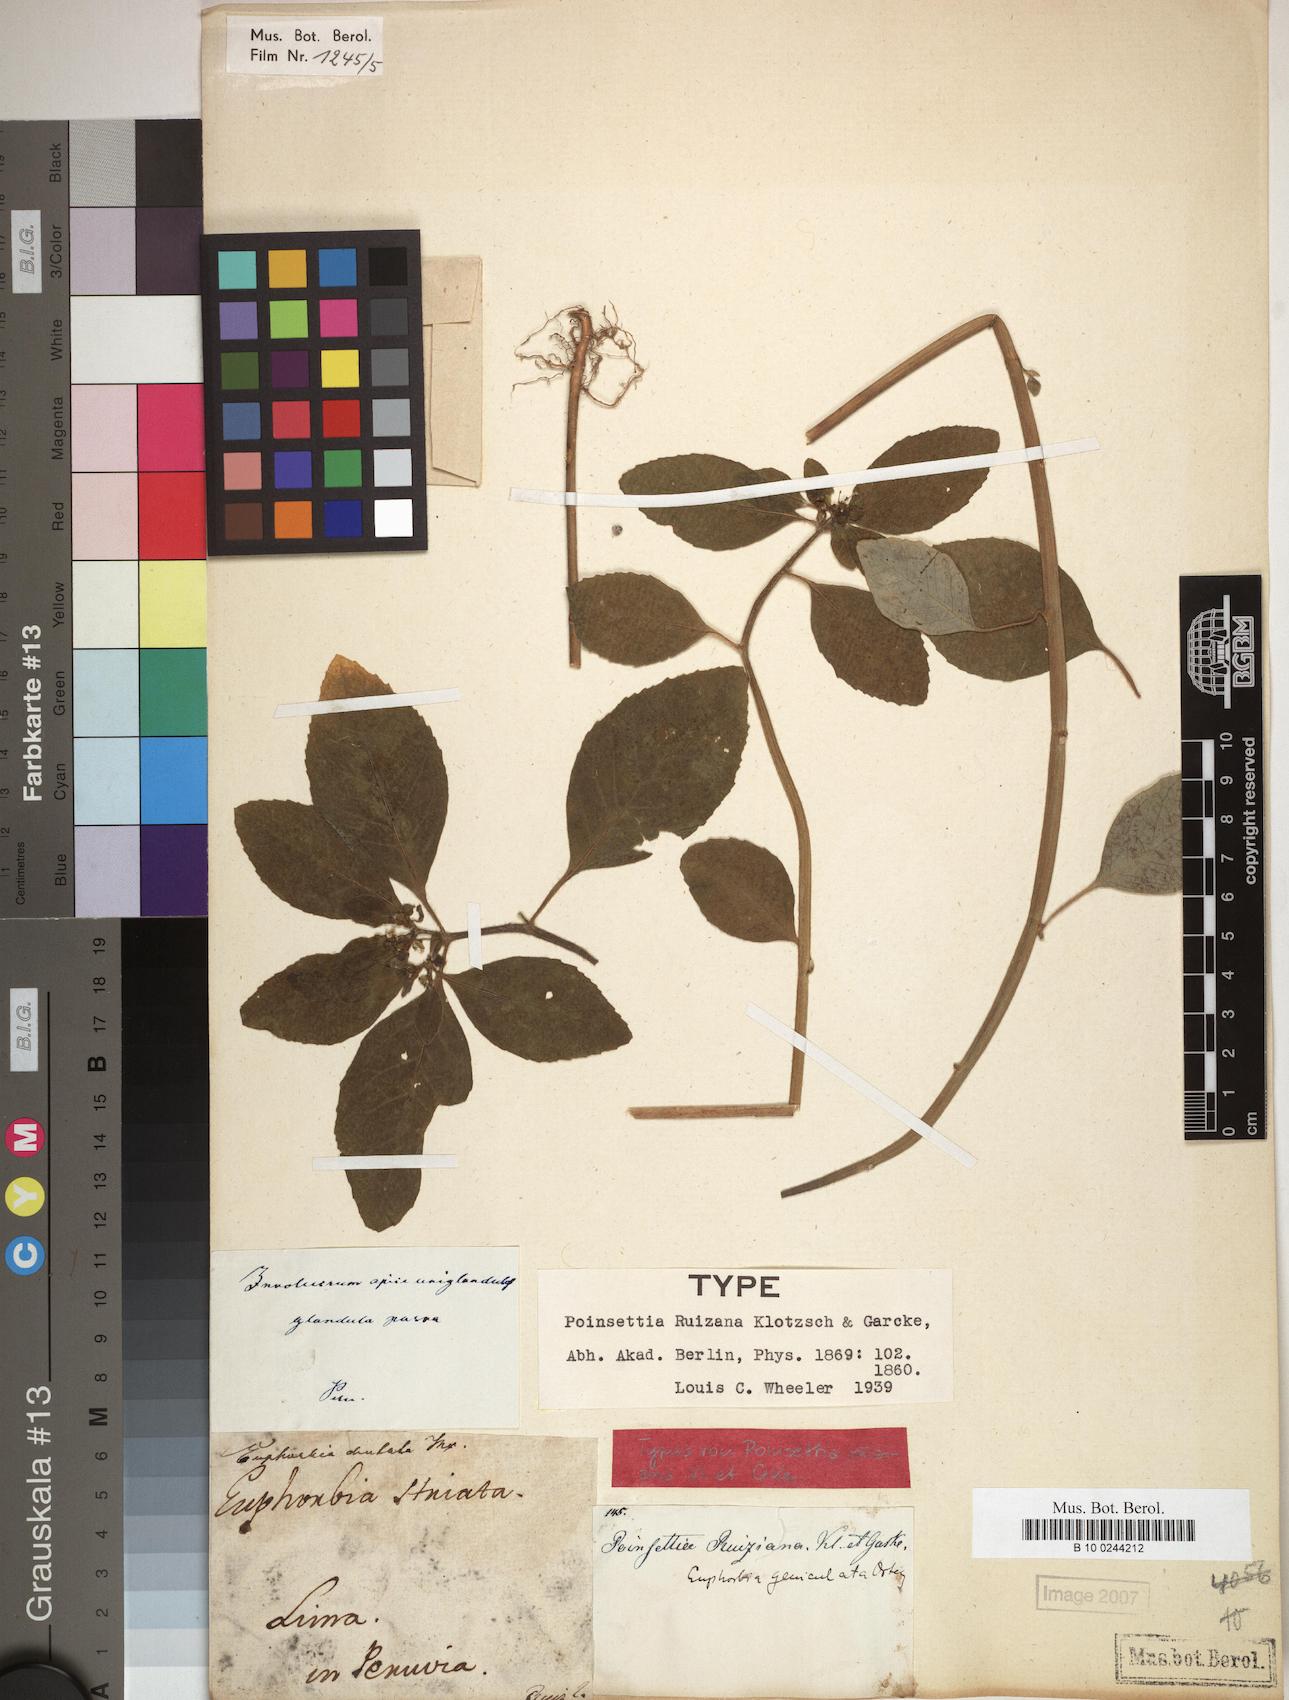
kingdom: Plantae
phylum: Tracheophyta
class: Magnoliopsida
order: Malpighiales
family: Euphorbiaceae
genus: Euphorbia
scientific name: Euphorbia heterophylla
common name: Mexican fireplant
